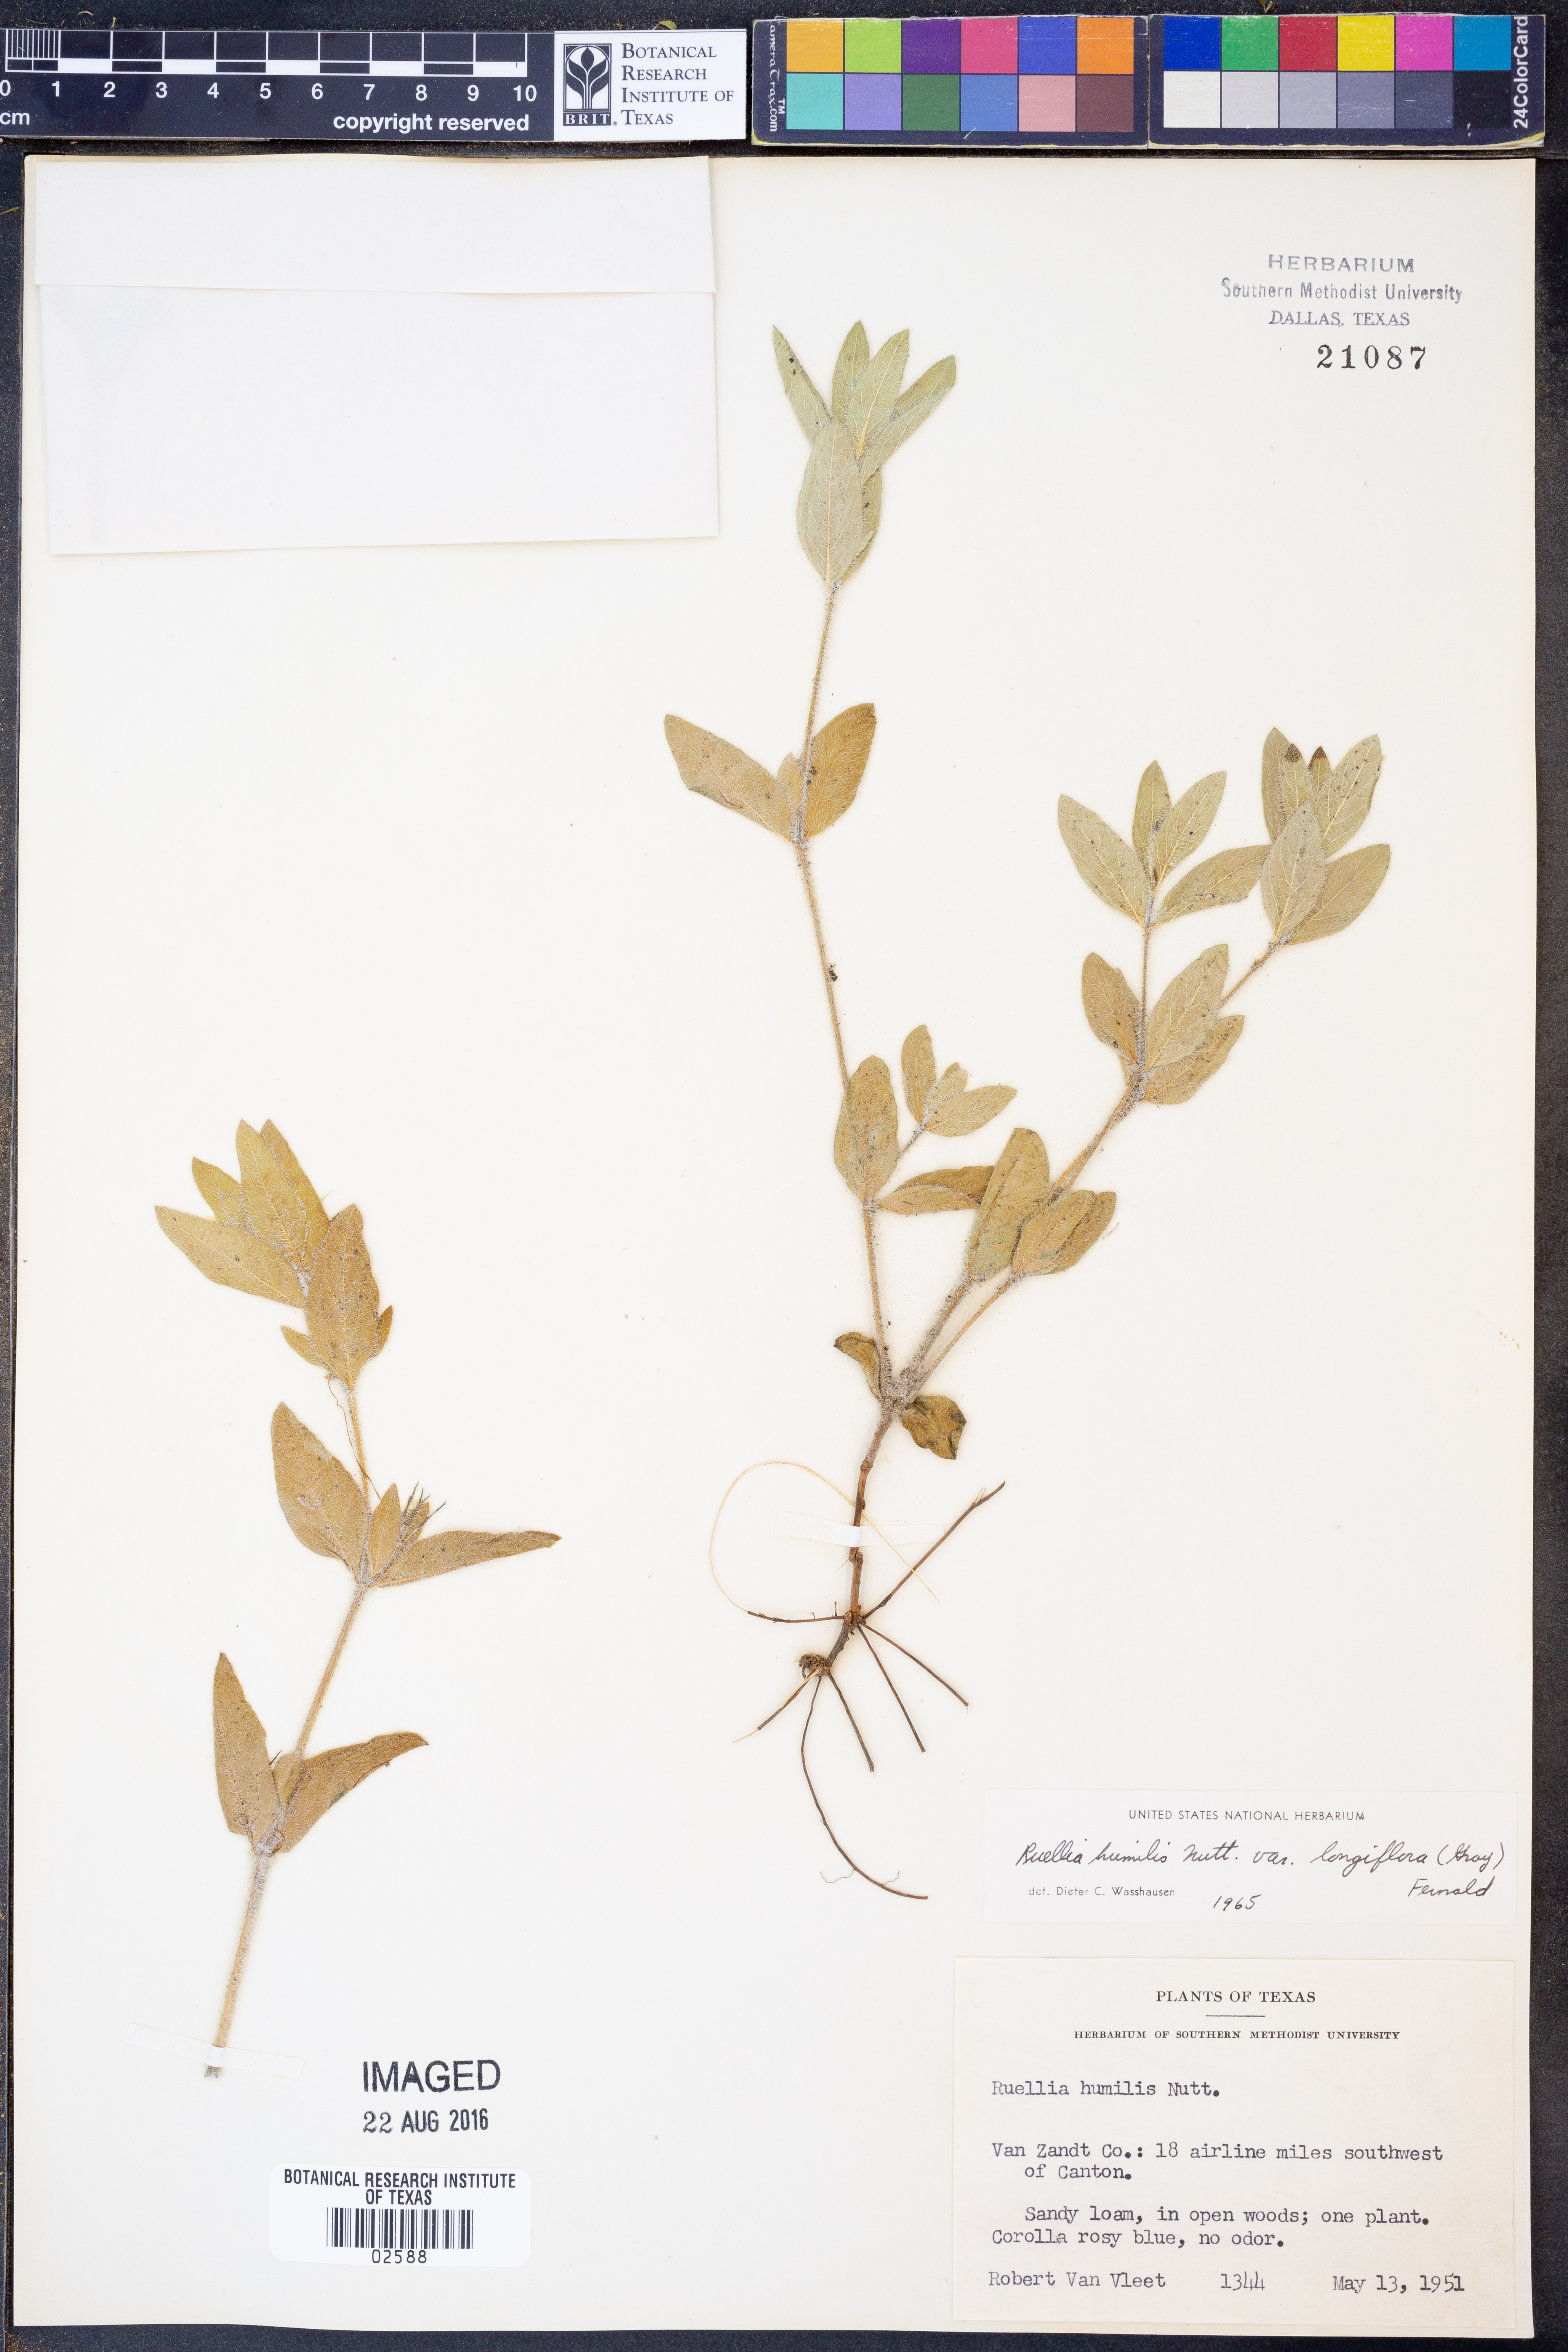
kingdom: Plantae
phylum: Tracheophyta
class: Magnoliopsida
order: Lamiales
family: Acanthaceae
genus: Ruellia
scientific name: Ruellia humilis
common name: Fringe-leaf ruellia
